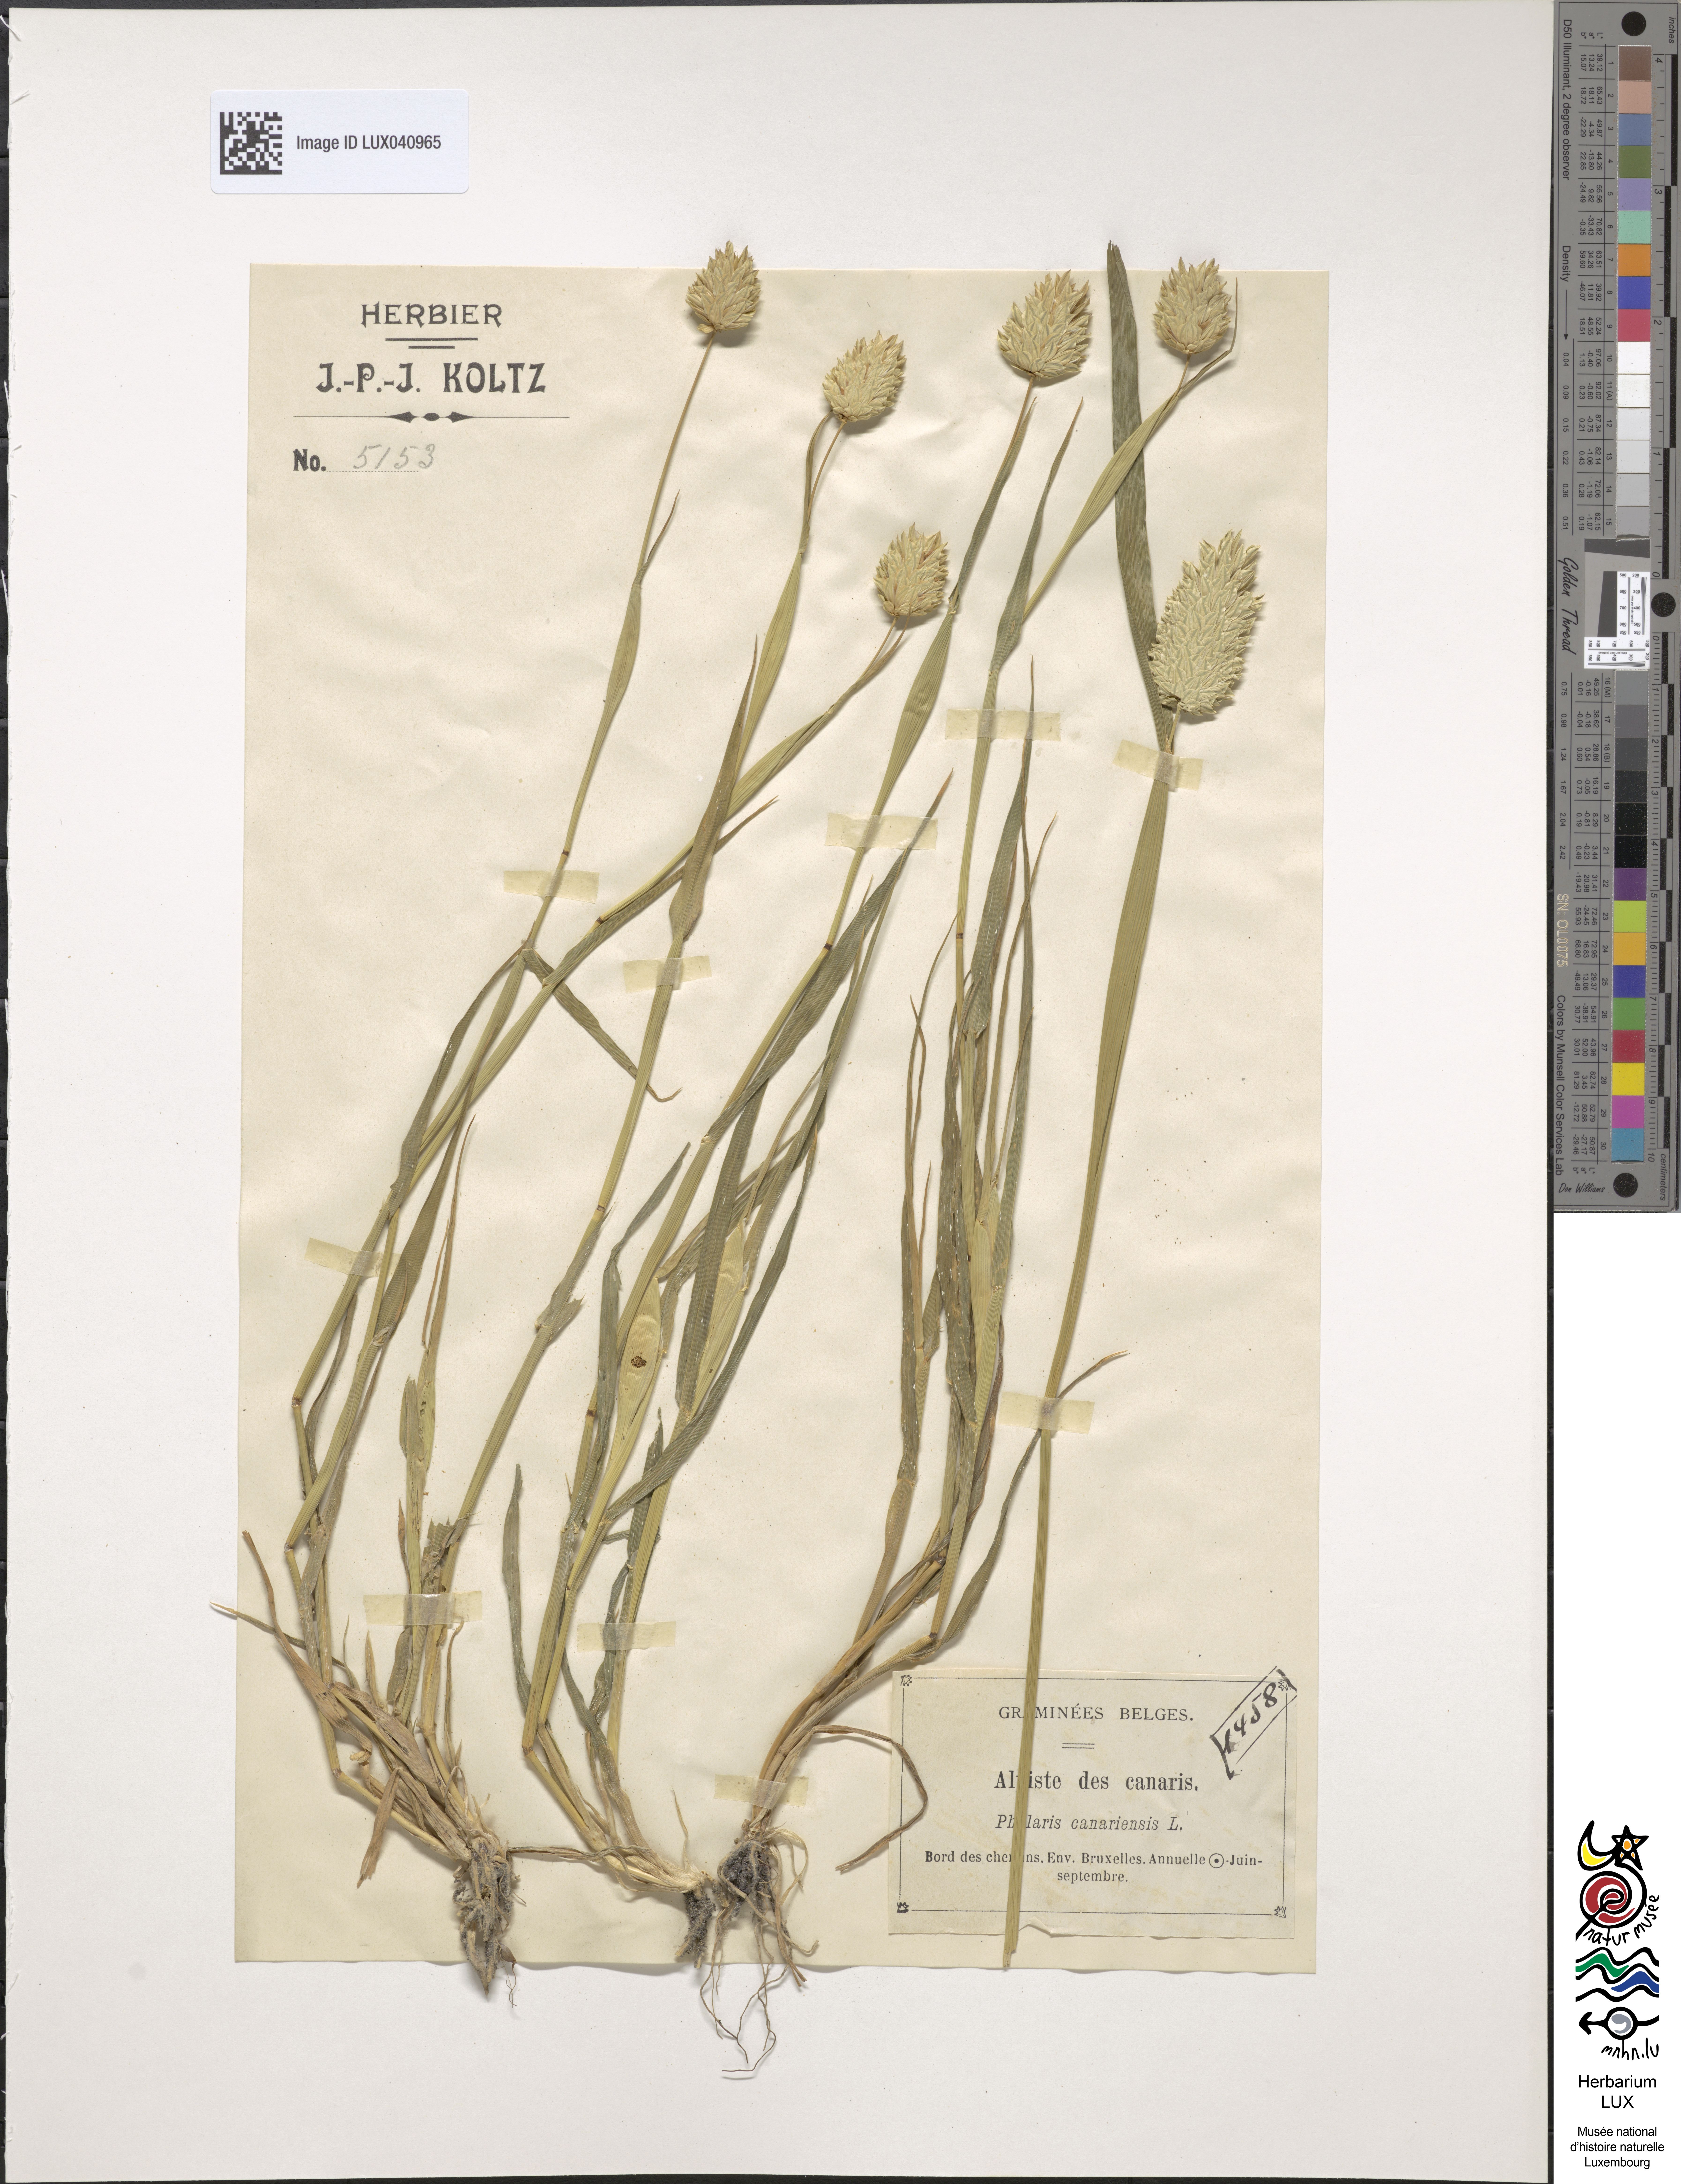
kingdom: Plantae
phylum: Tracheophyta
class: Liliopsida
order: Poales
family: Poaceae
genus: Phalaris
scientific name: Phalaris canariensis
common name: Annual canarygrass
